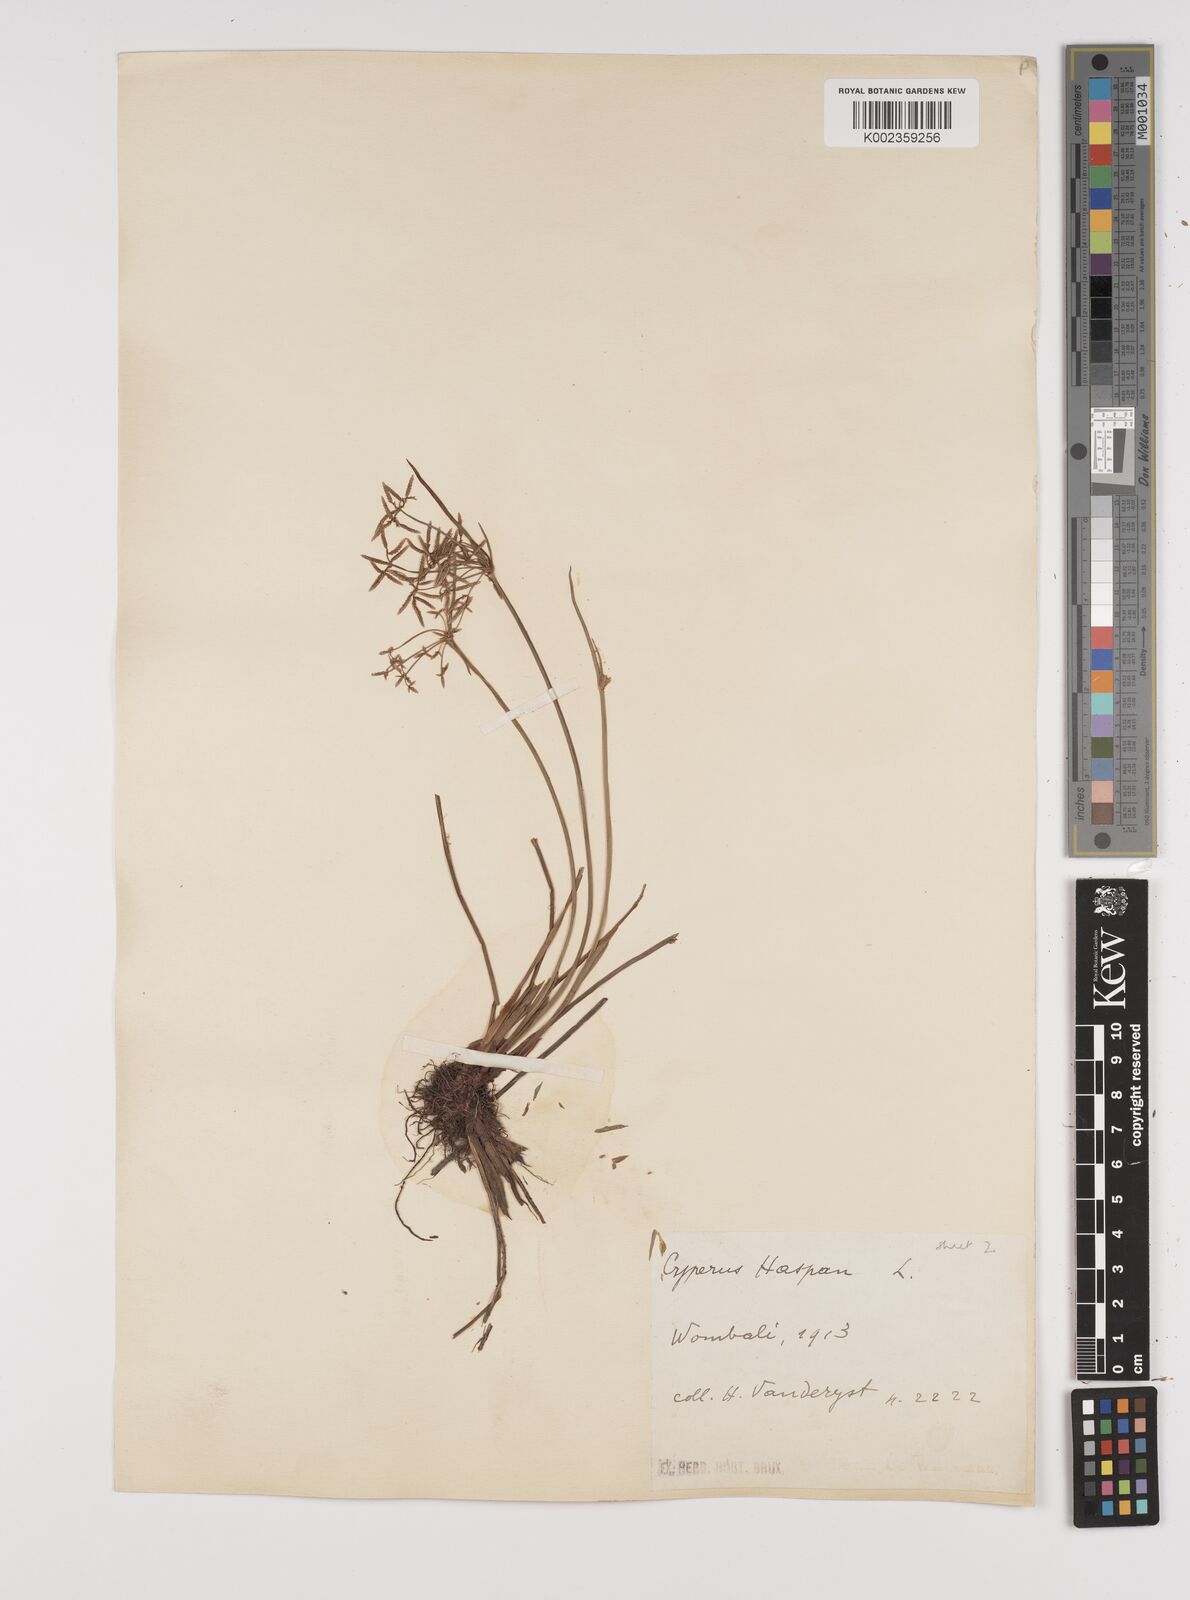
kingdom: Plantae
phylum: Tracheophyta
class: Liliopsida
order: Poales
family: Cyperaceae
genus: Cyperus
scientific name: Cyperus haspan
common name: Haspan flatsedge
